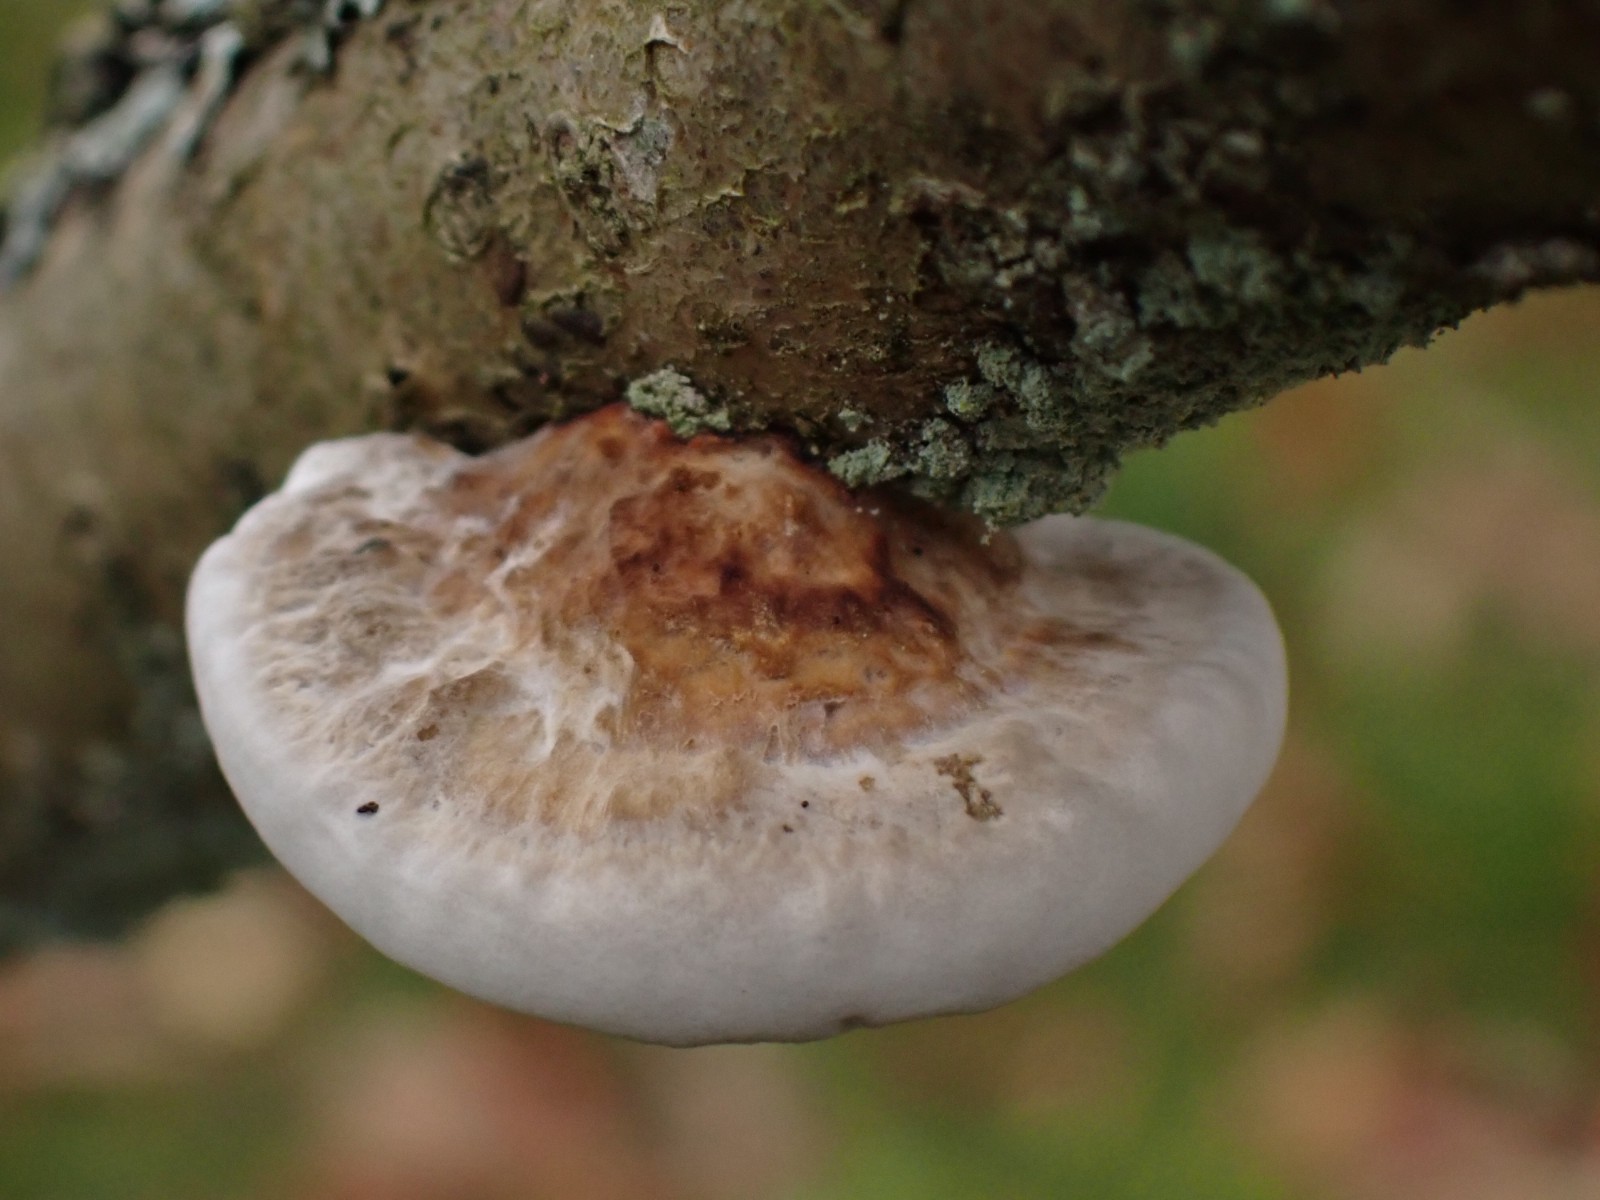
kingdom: Fungi
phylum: Basidiomycota
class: Agaricomycetes
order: Polyporales
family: Polyporaceae
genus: Daedaleopsis
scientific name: Daedaleopsis confragosa
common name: rødmende læderporesvamp
